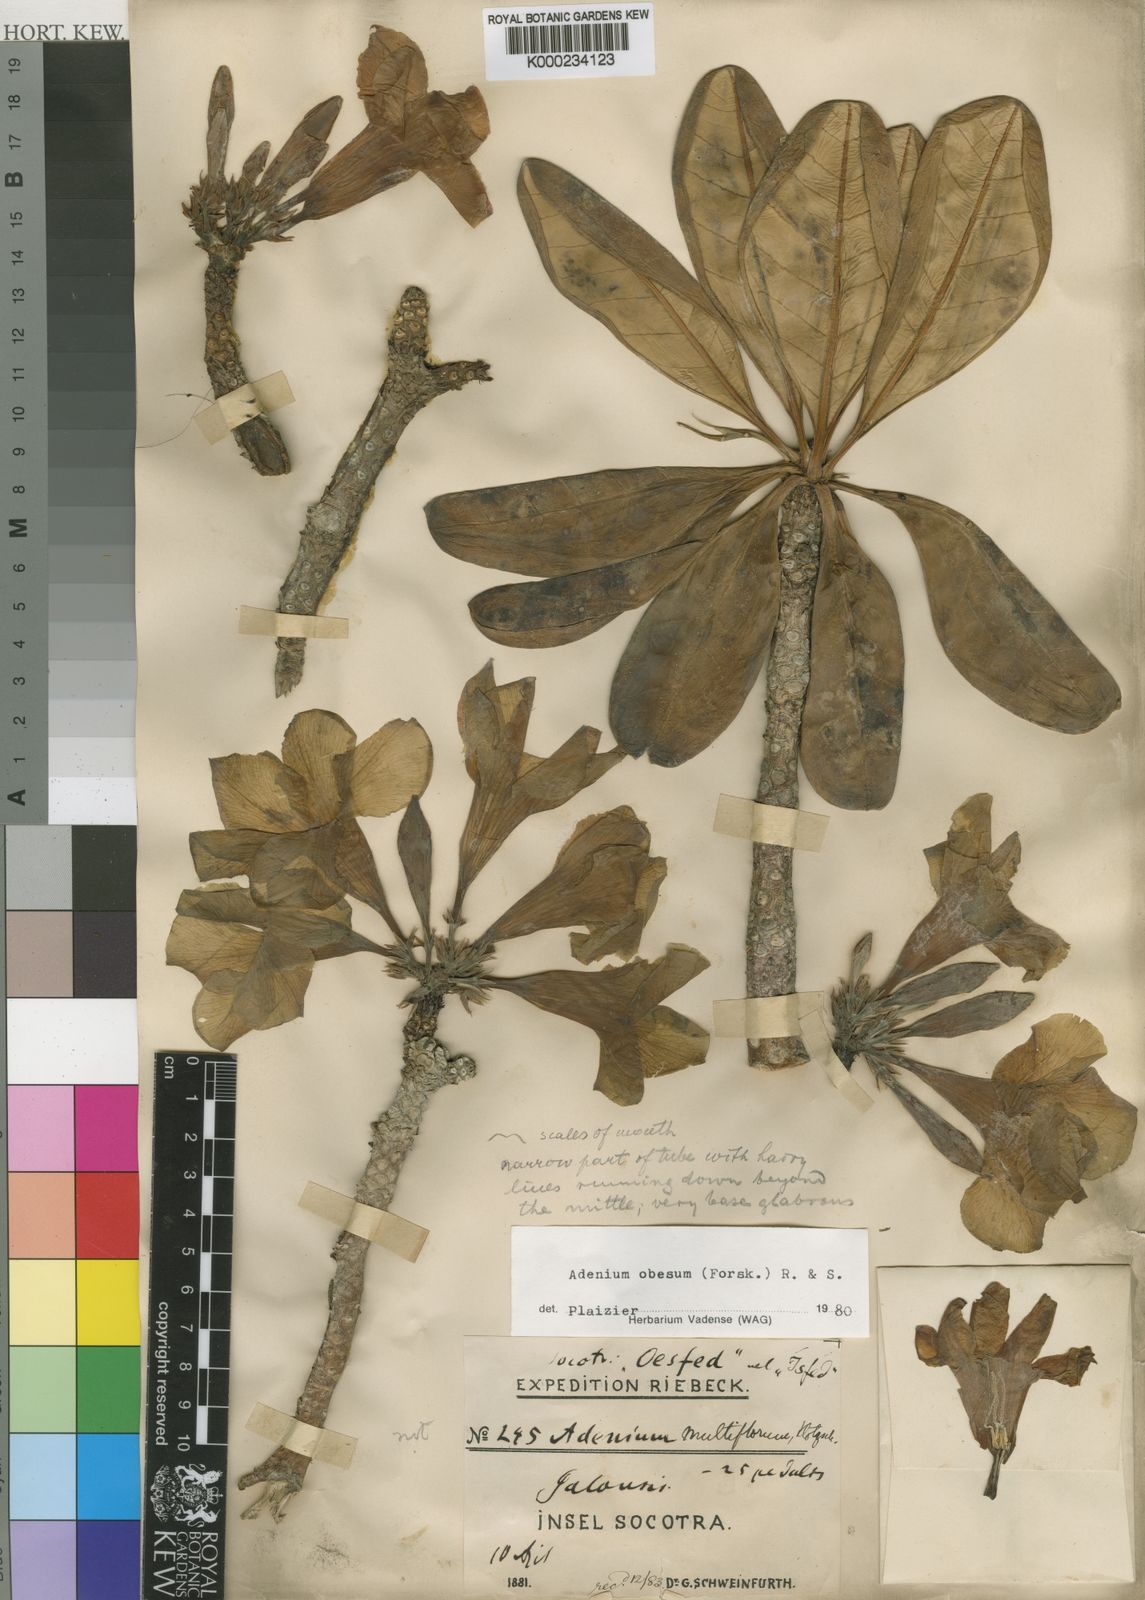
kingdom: Plantae
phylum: Tracheophyta
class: Magnoliopsida
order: Gentianales
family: Apocynaceae
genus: Adenium
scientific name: Adenium obesum
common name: Desert-rose
